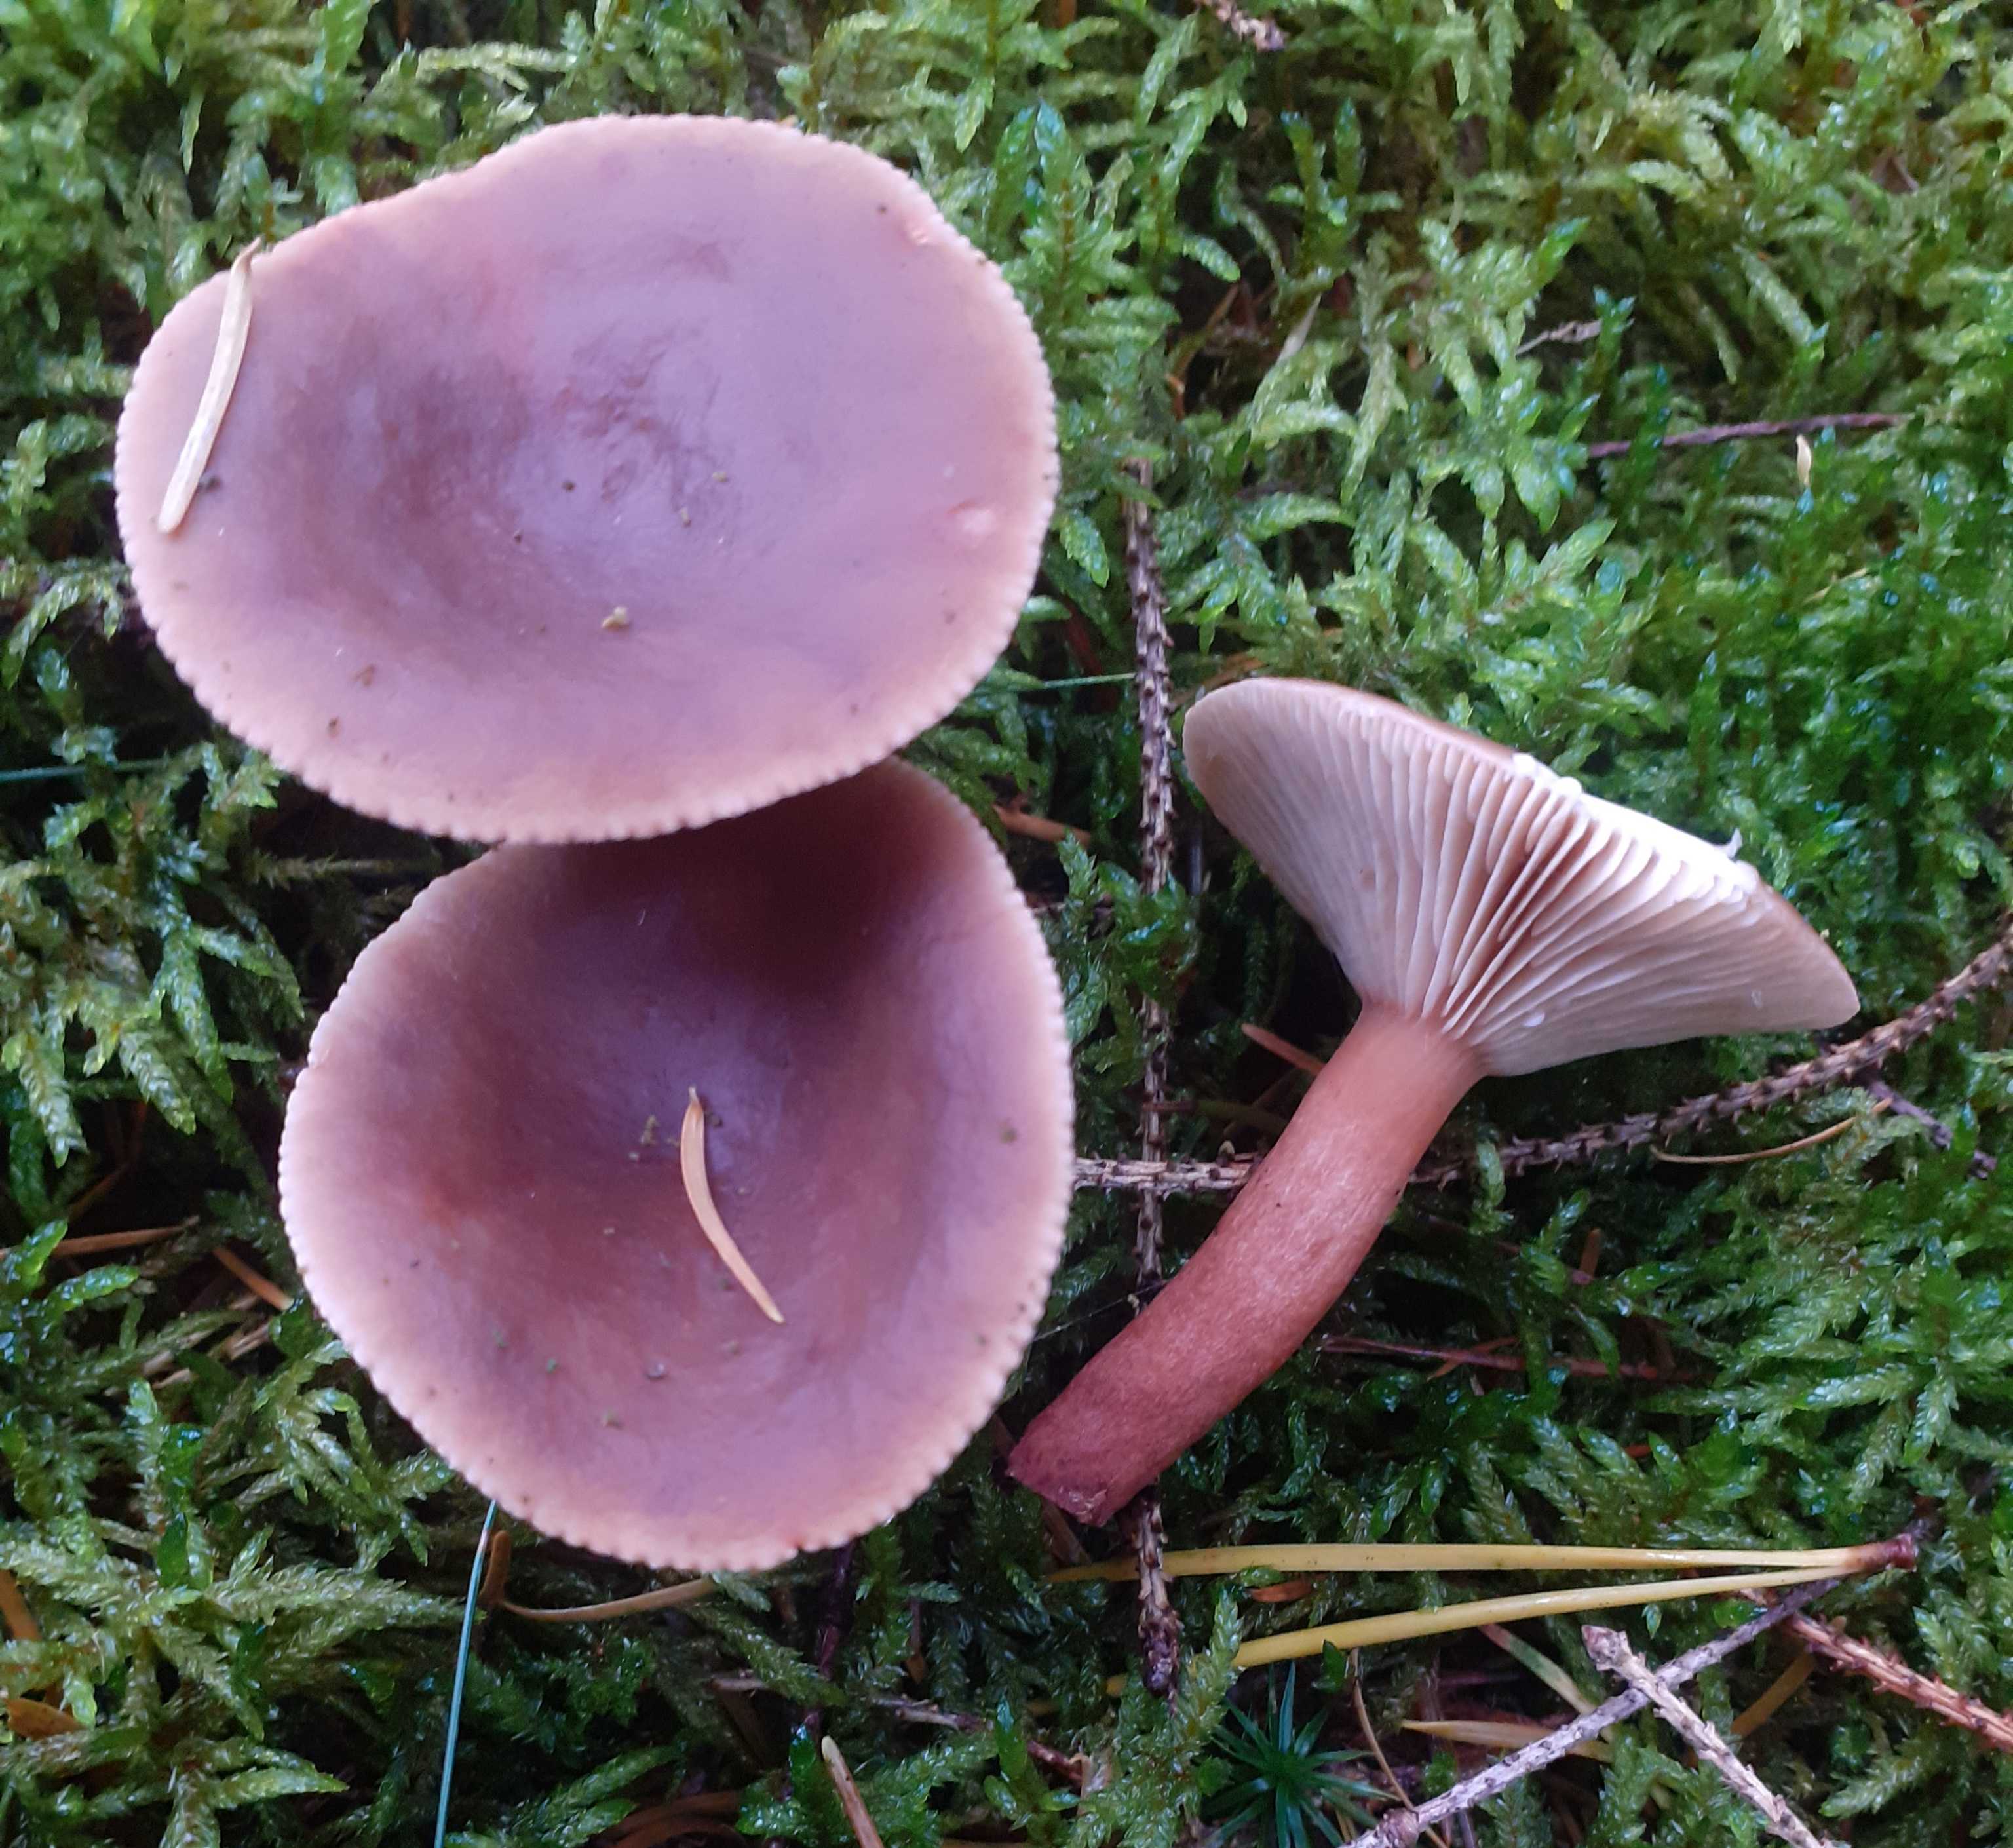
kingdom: Fungi
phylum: Basidiomycota
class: Agaricomycetes
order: Russulales
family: Russulaceae
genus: Lactarius
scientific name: Lactarius hepaticus
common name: leverbrun mælkehat
